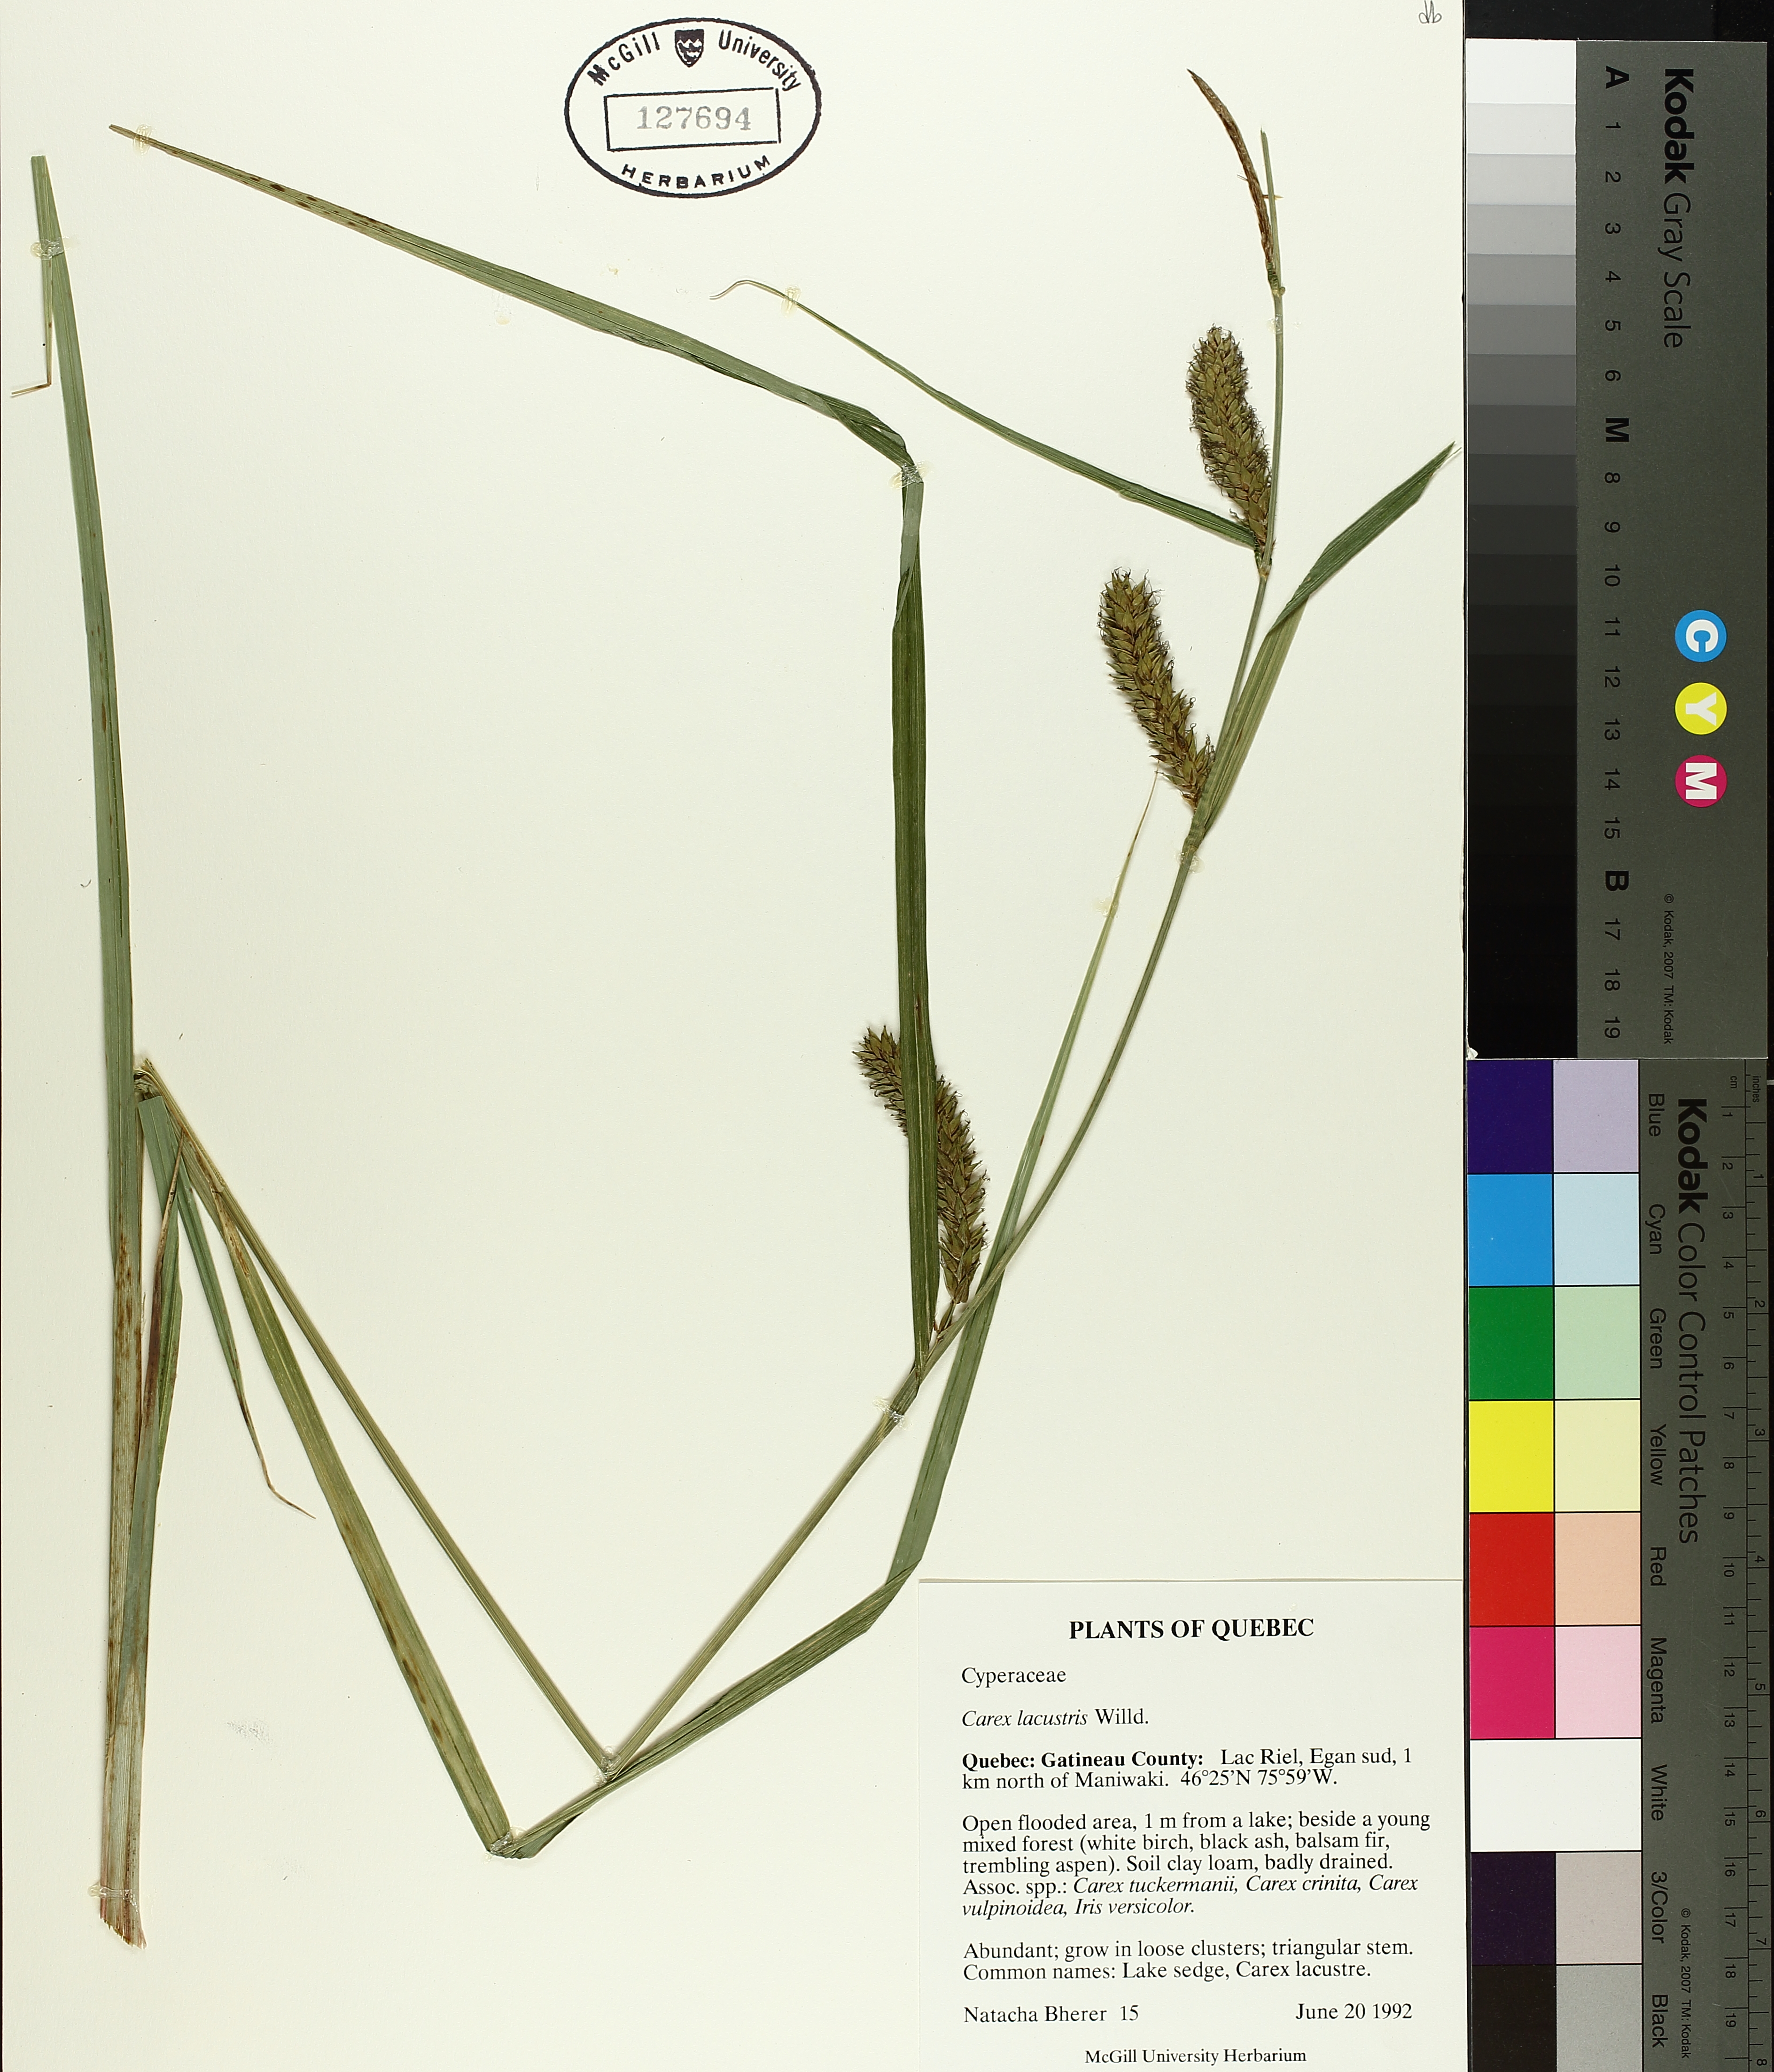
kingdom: Plantae
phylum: Tracheophyta
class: Liliopsida
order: Poales
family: Cyperaceae
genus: Carex
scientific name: Carex lacustris
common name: Common lake sedge
